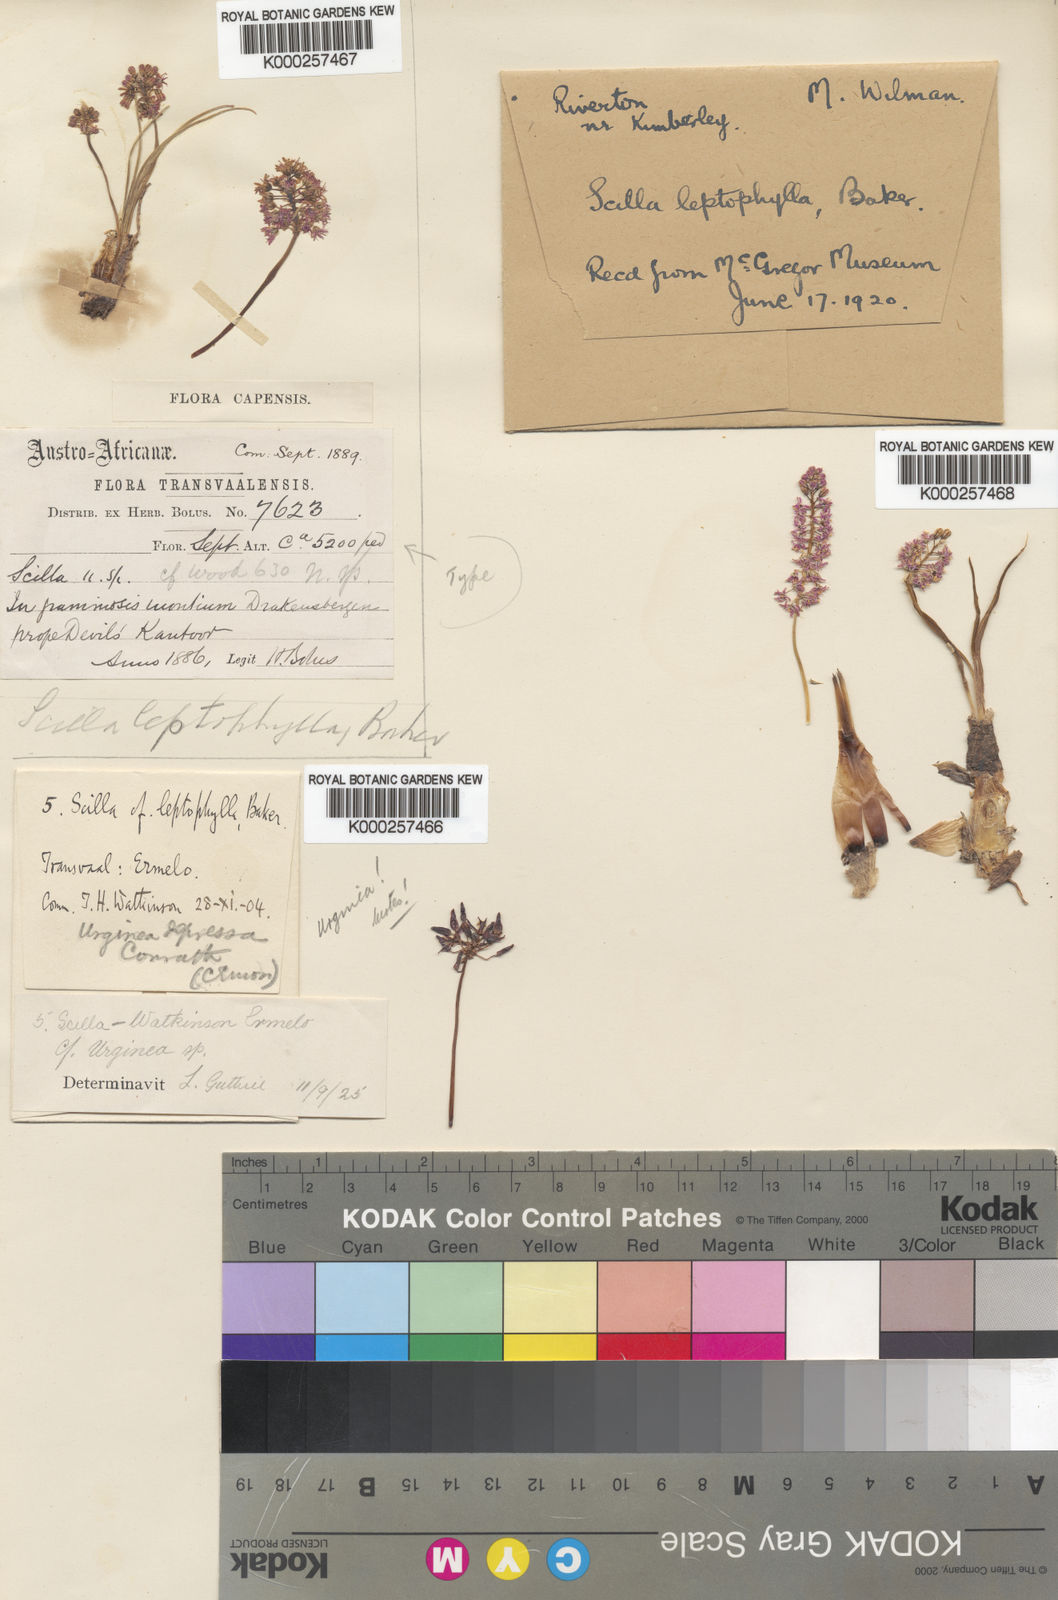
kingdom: Plantae
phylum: Tracheophyta
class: Liliopsida
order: Asparagales
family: Asparagaceae
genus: Ledebouria
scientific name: Ledebouria cooperi
